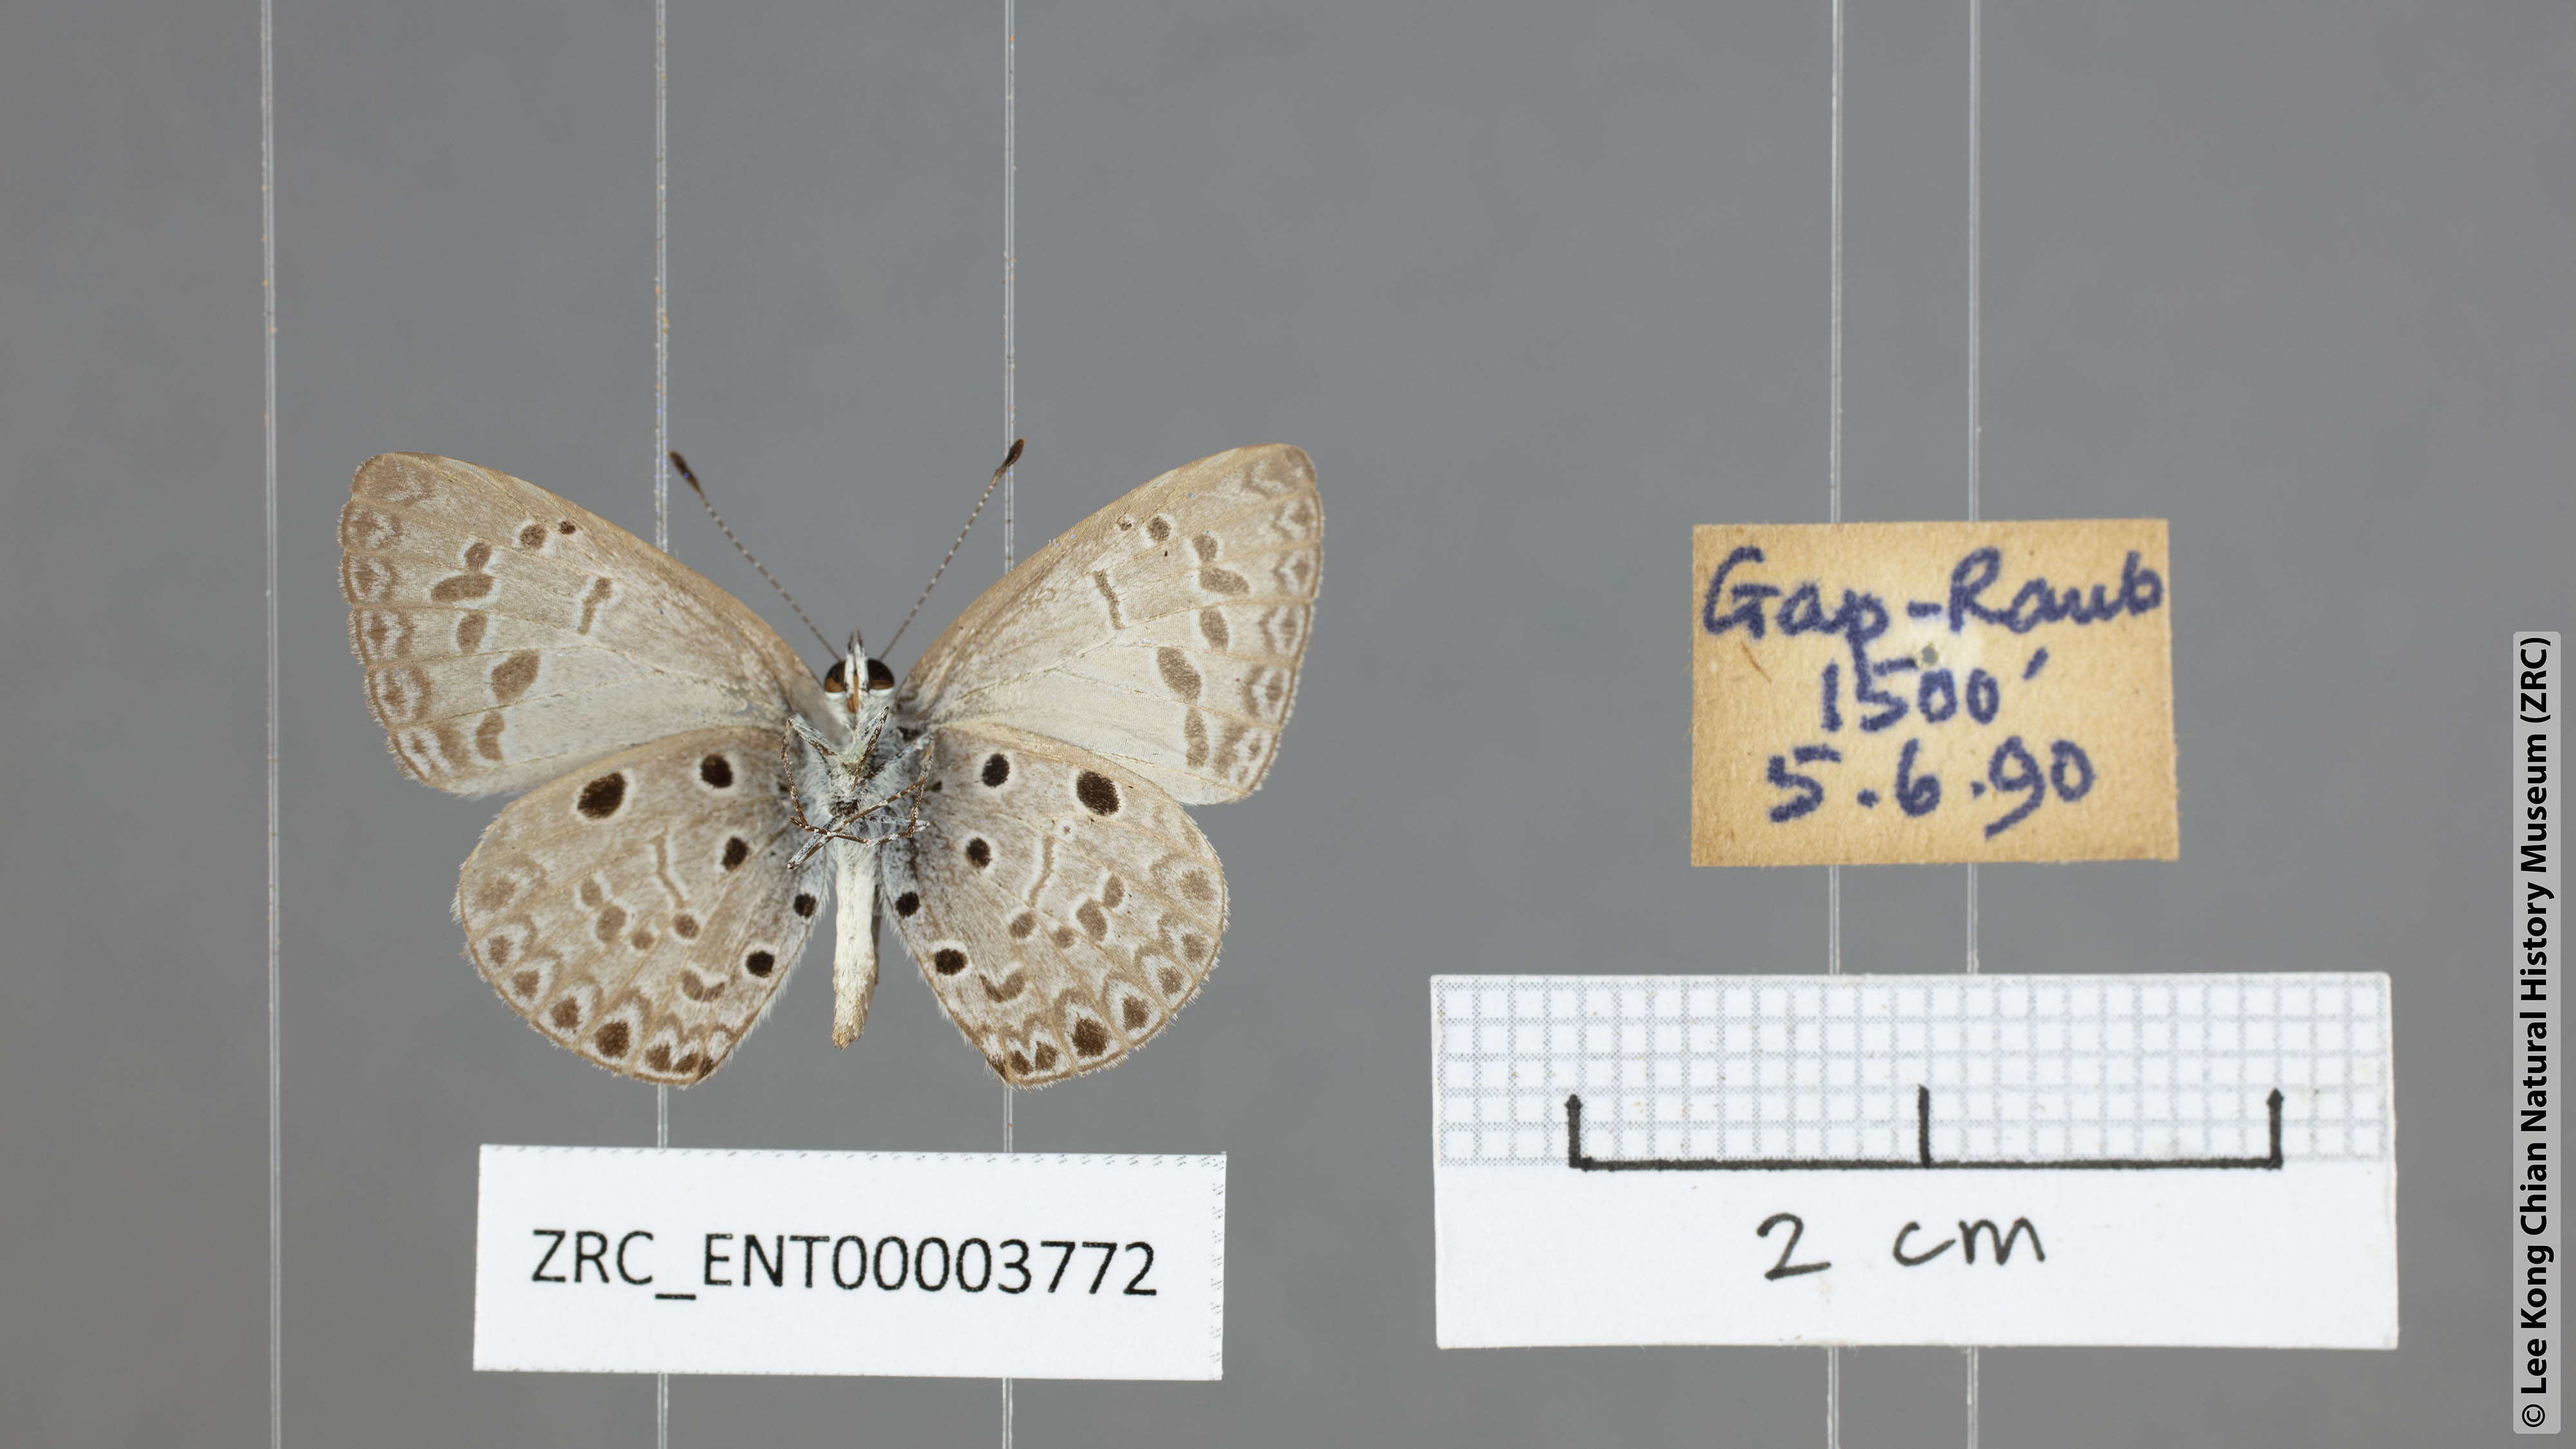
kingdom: Animalia
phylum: Arthropoda
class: Insecta
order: Lepidoptera
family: Lycaenidae
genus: Acytolepis
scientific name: Acytolepis puspa
